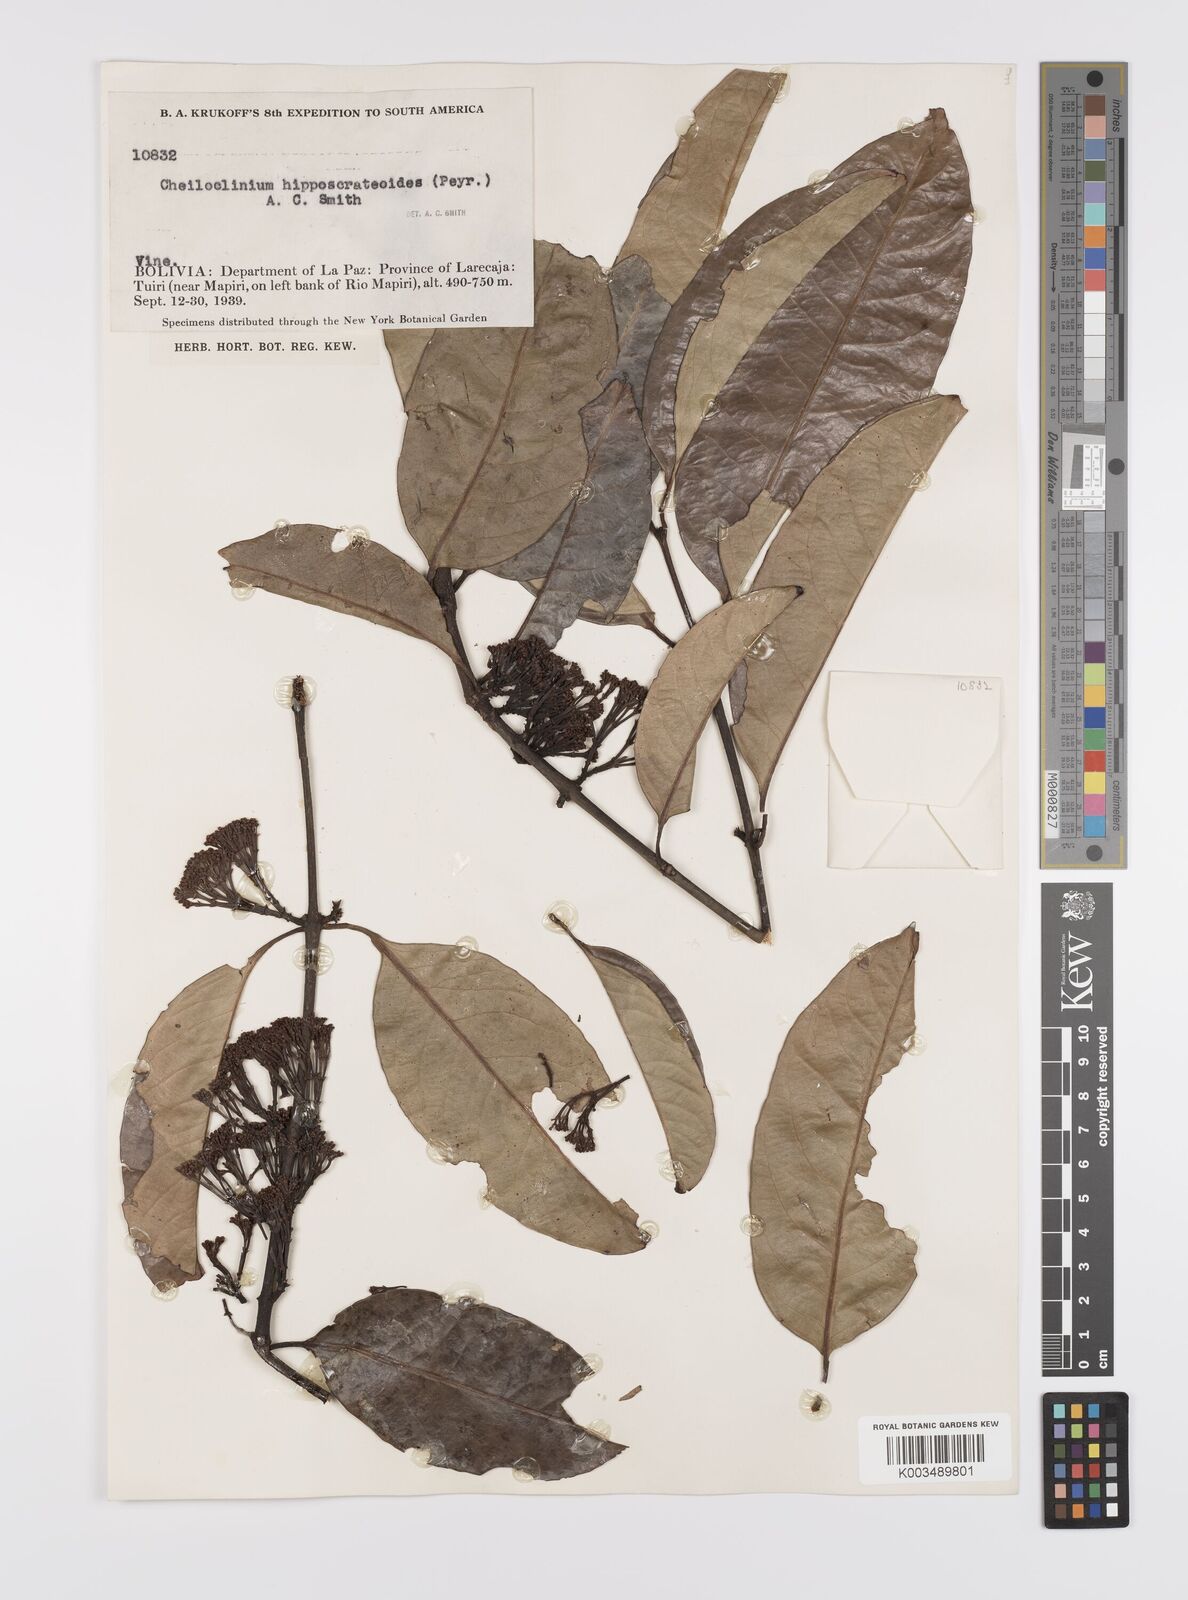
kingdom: Plantae
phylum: Tracheophyta
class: Magnoliopsida
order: Celastrales
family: Celastraceae
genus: Cheiloclinium
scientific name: Cheiloclinium hippocrateoides
